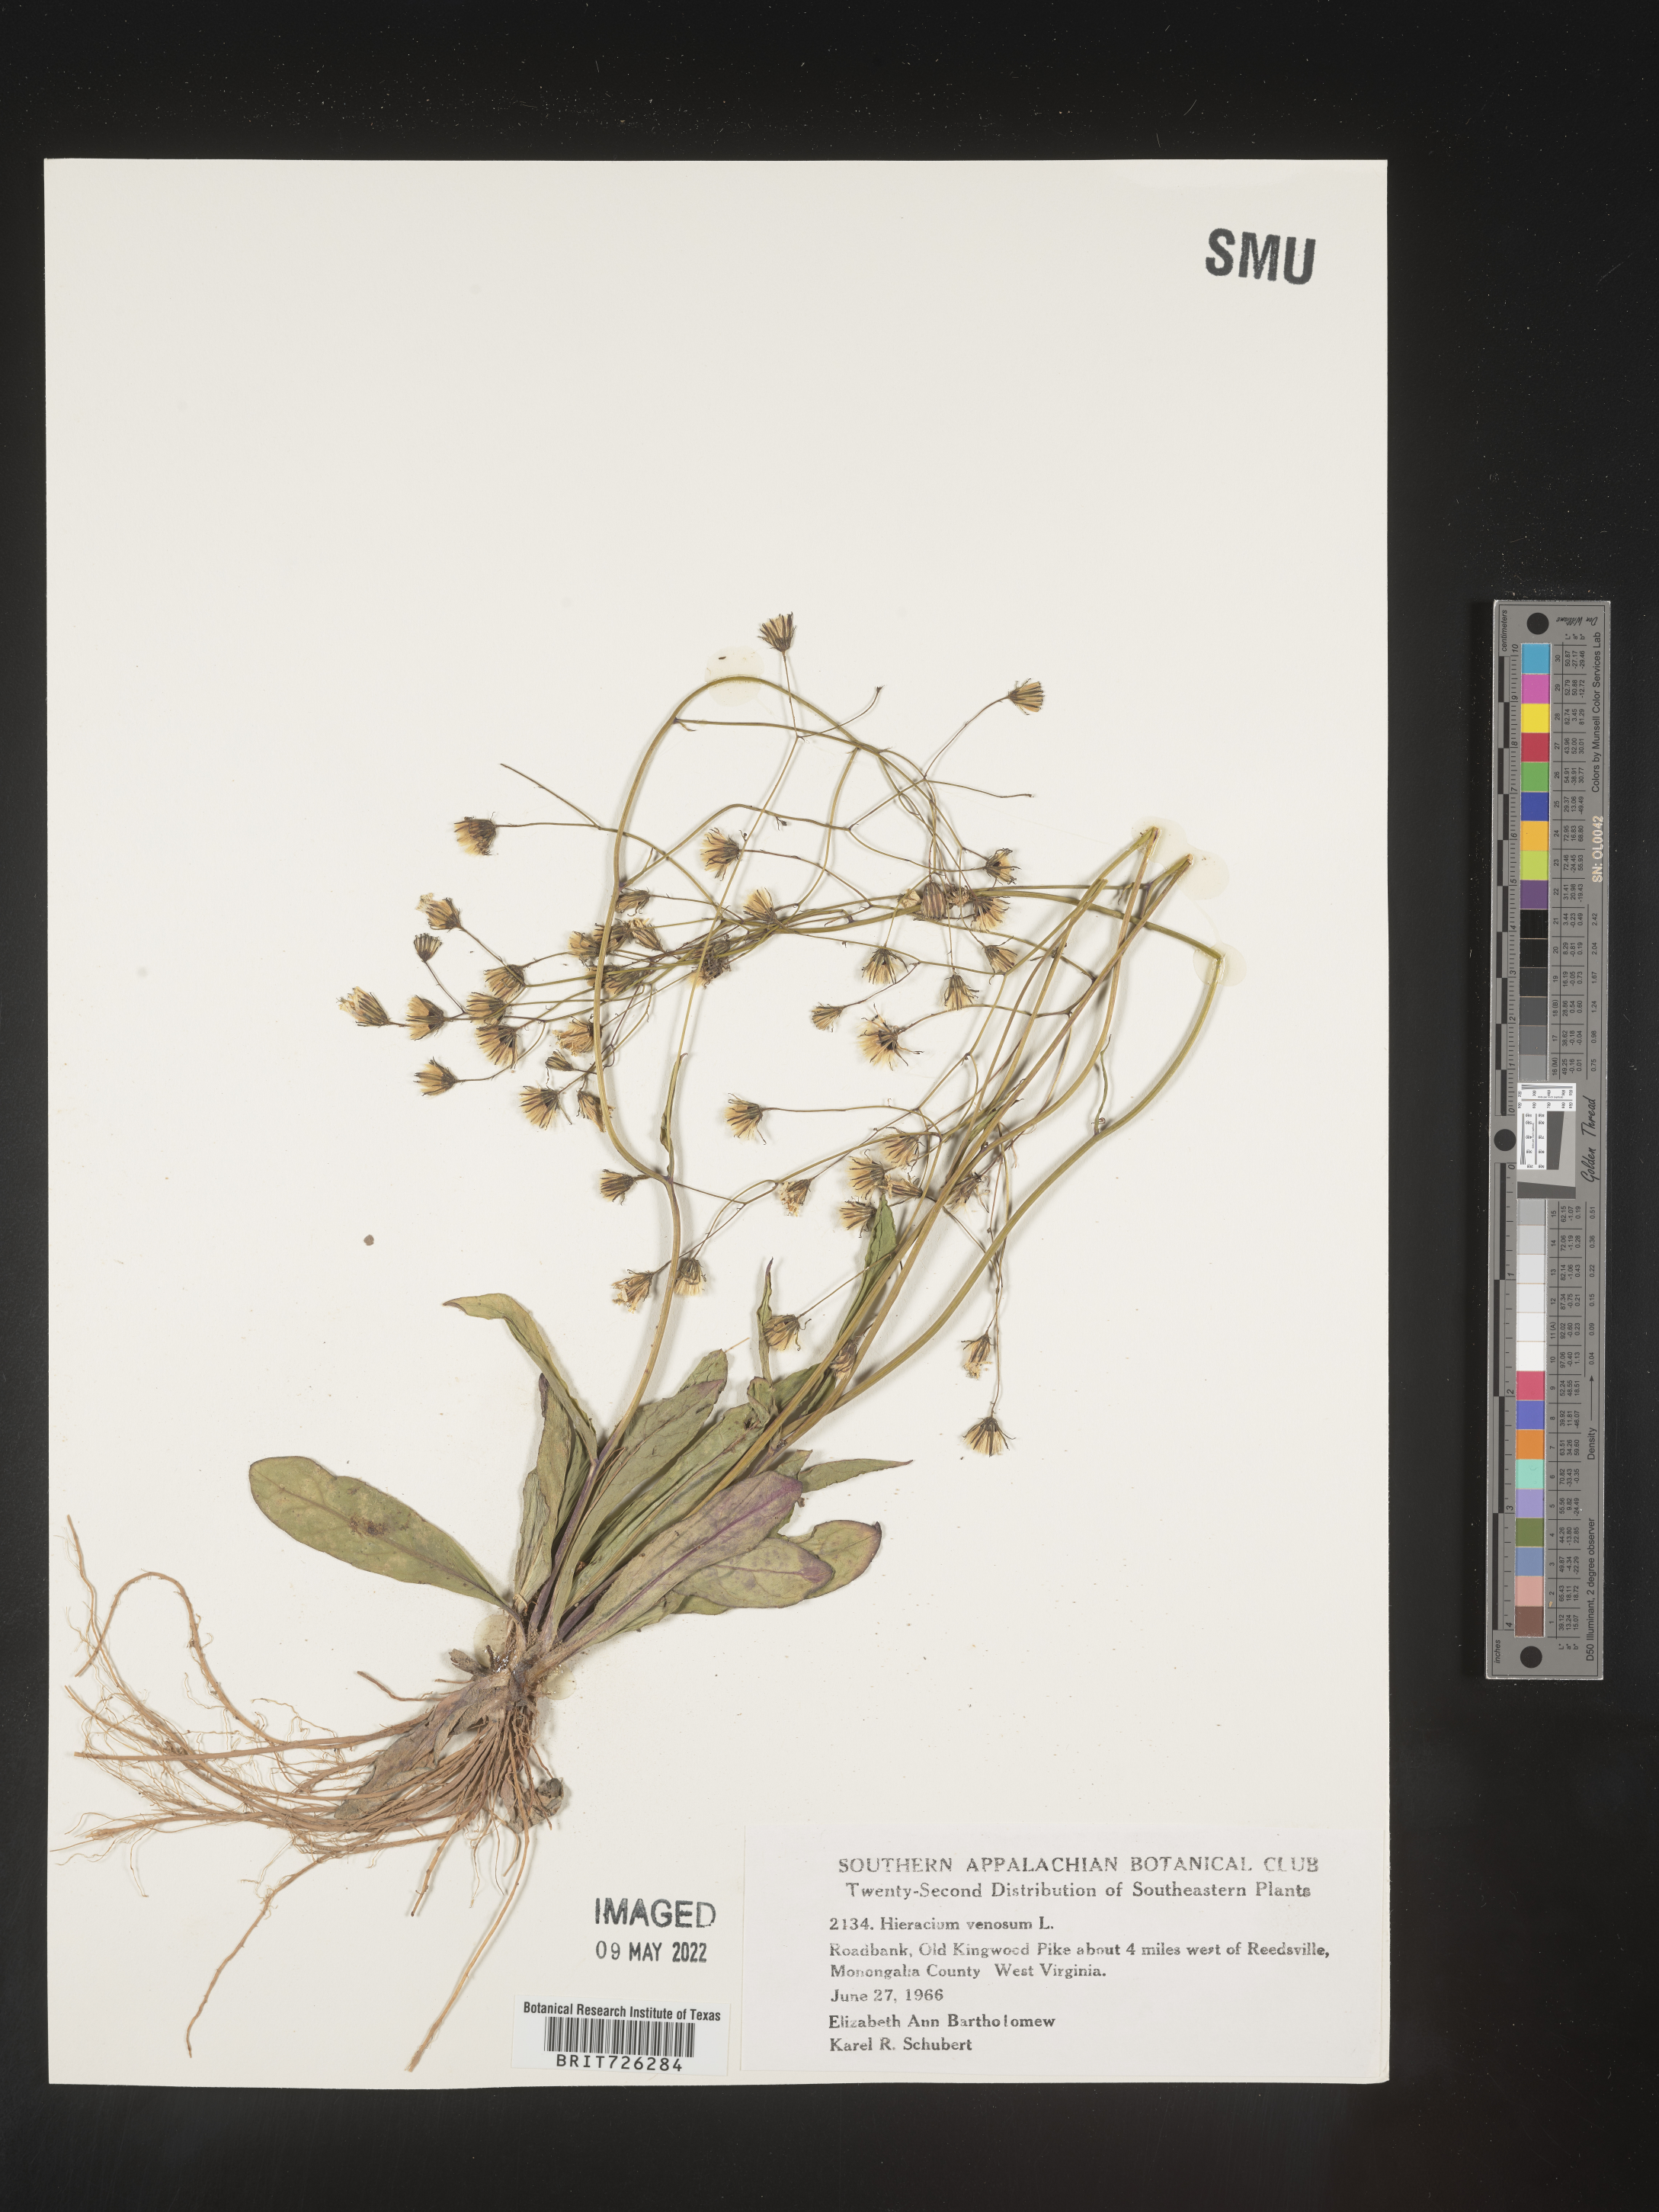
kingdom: Plantae
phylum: Tracheophyta
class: Magnoliopsida
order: Asterales
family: Asteraceae
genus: Hieracium
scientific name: Hieracium
